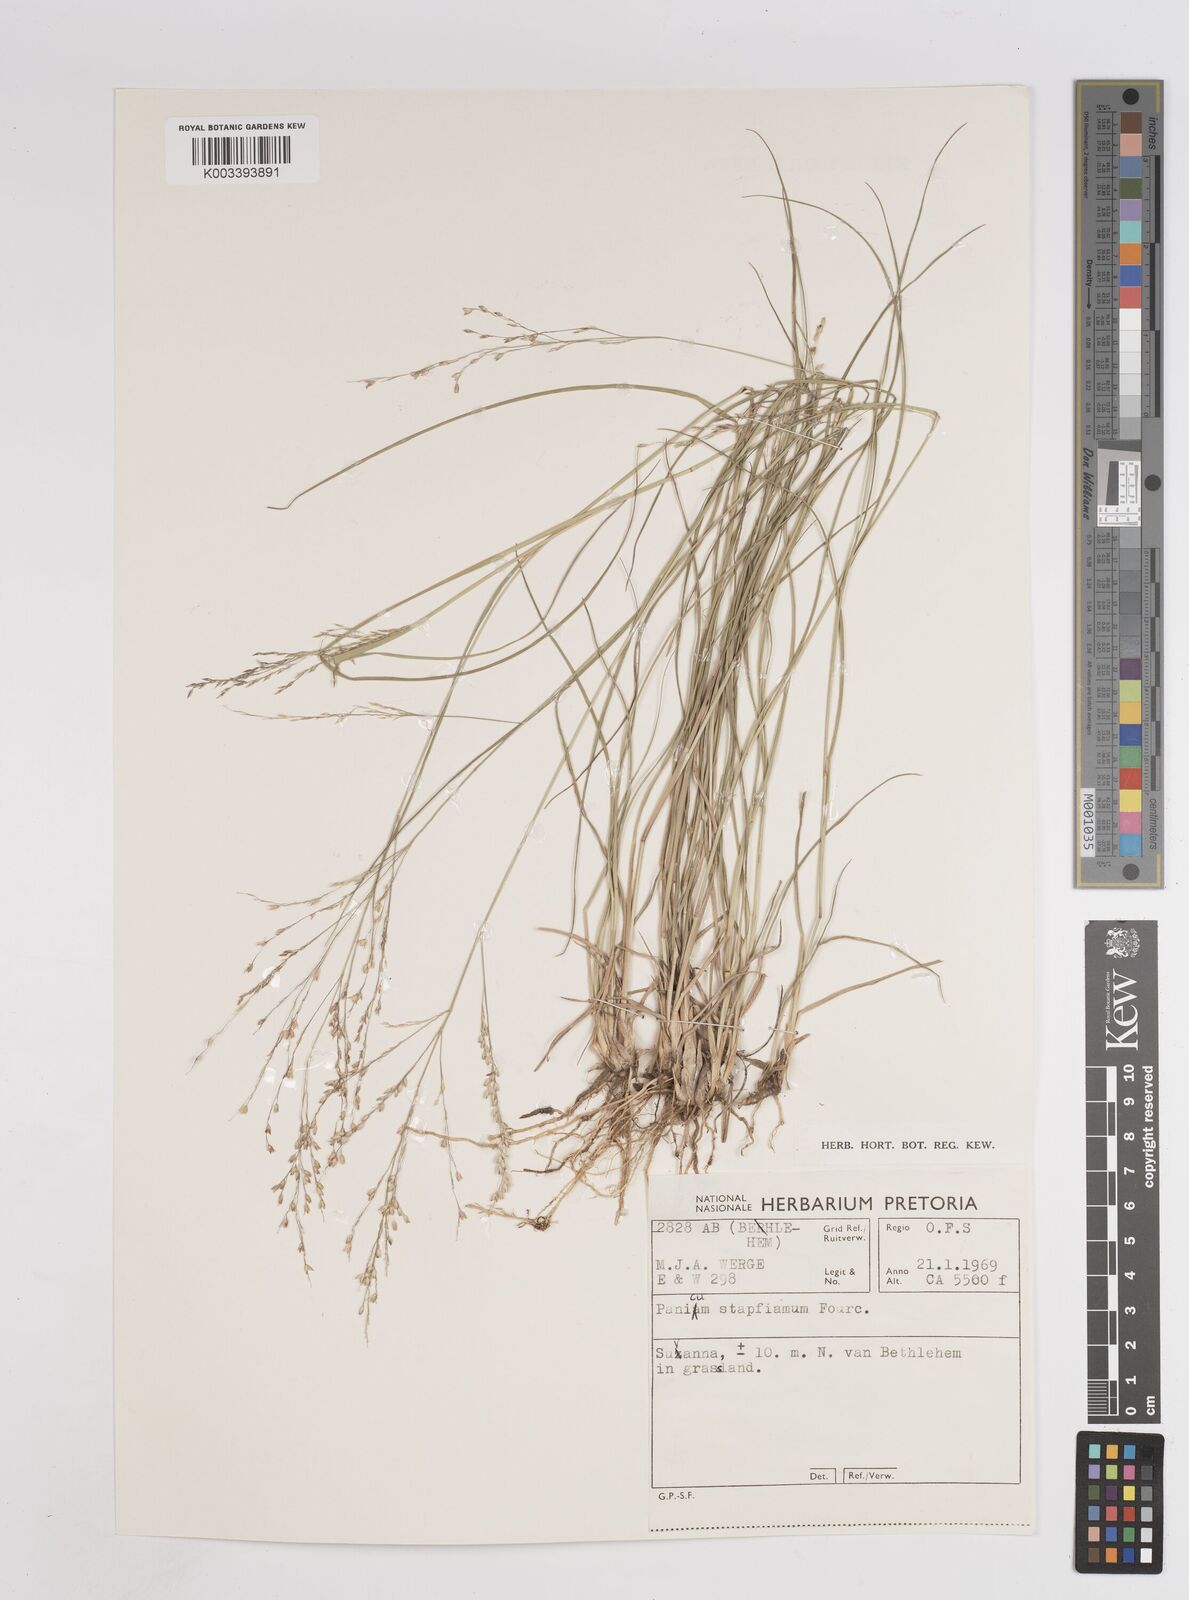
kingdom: Plantae
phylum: Tracheophyta
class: Liliopsida
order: Poales
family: Poaceae
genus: Panicum
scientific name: Panicum stapfianum
